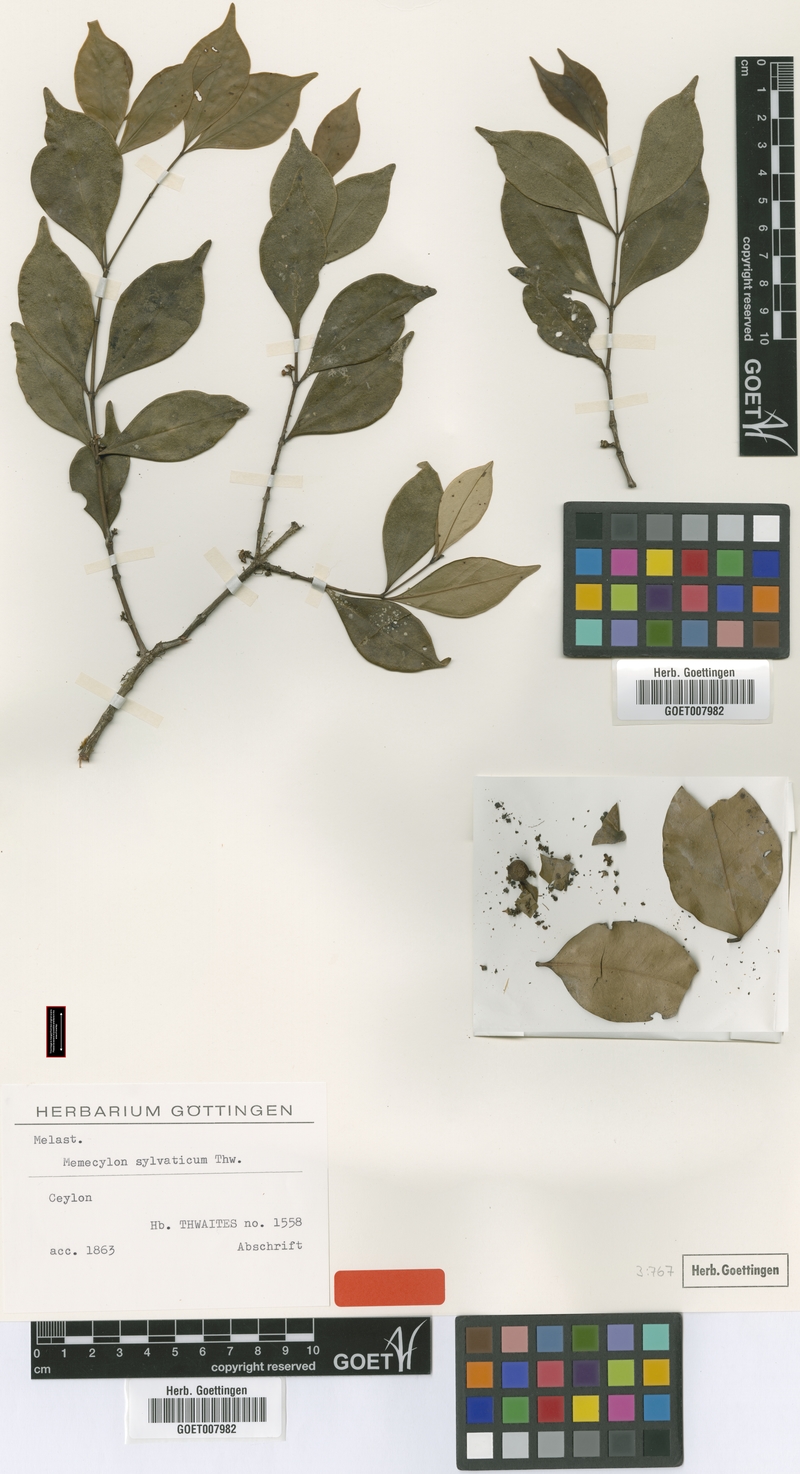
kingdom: Plantae
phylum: Tracheophyta
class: Magnoliopsida
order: Myrtales
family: Melastomataceae
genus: Memecylon
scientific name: Memecylon sylvaticum
